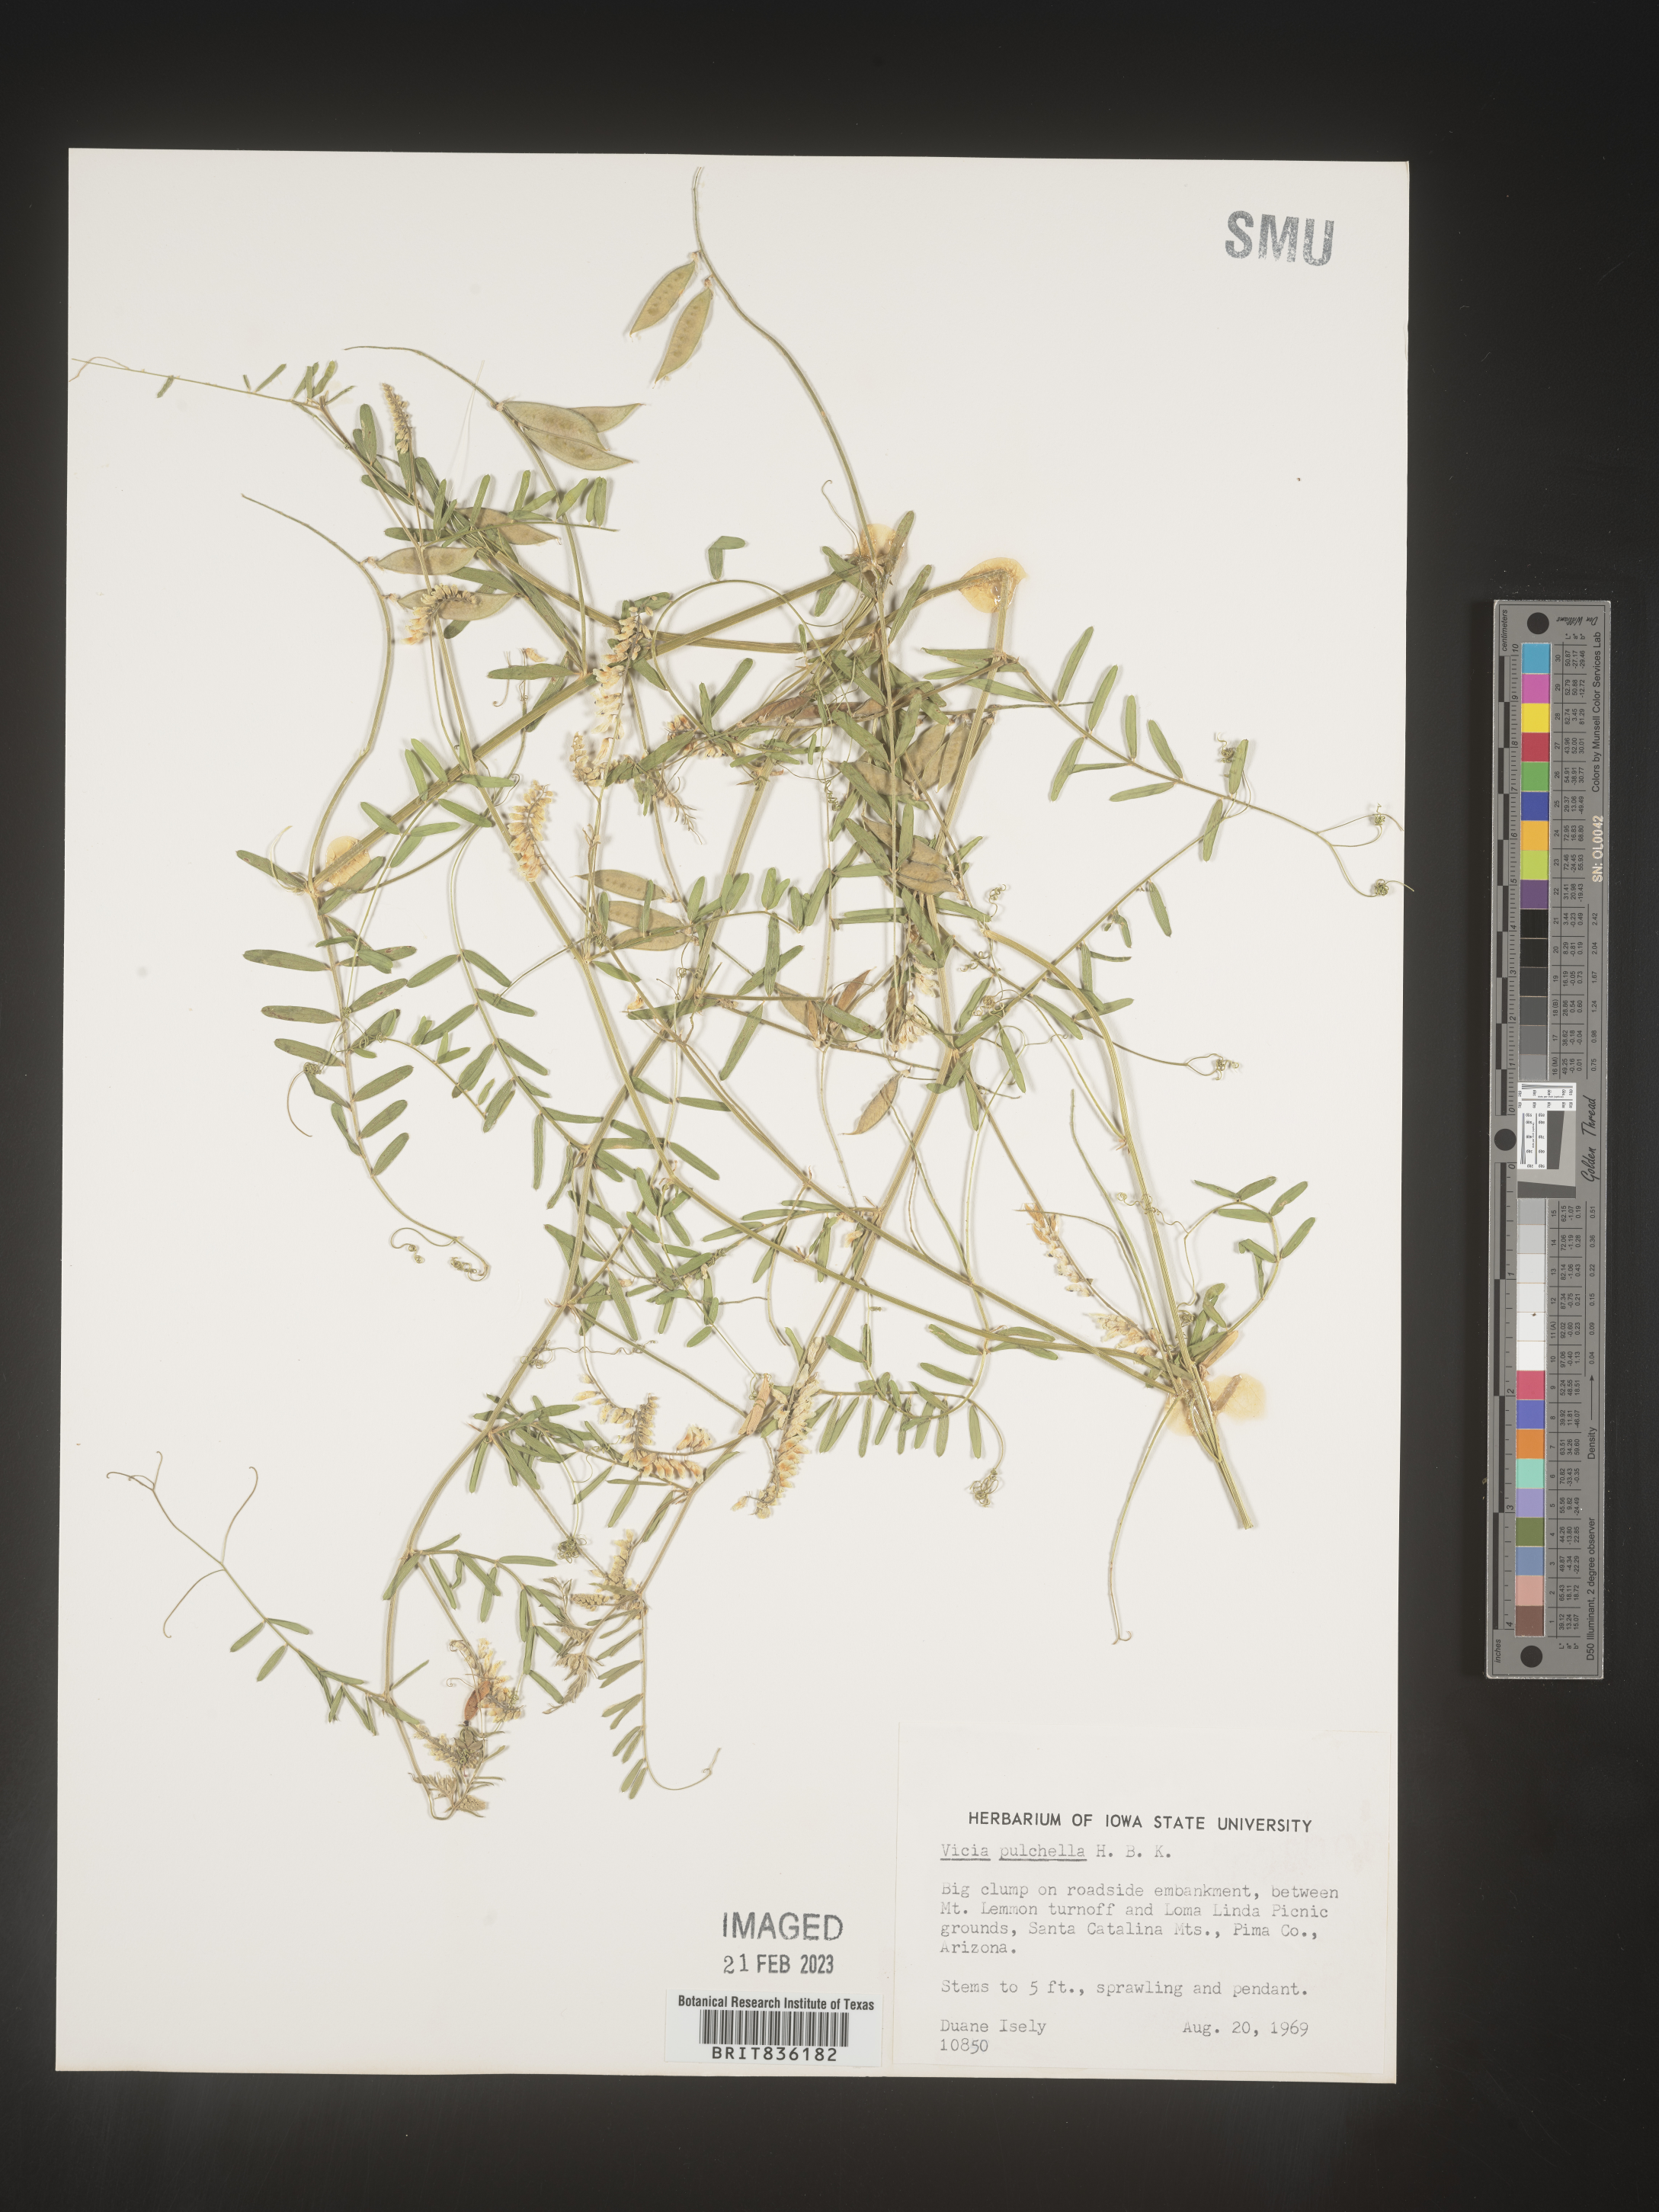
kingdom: Plantae
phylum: Tracheophyta
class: Magnoliopsida
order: Fabales
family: Fabaceae
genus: Vicia
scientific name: Vicia
